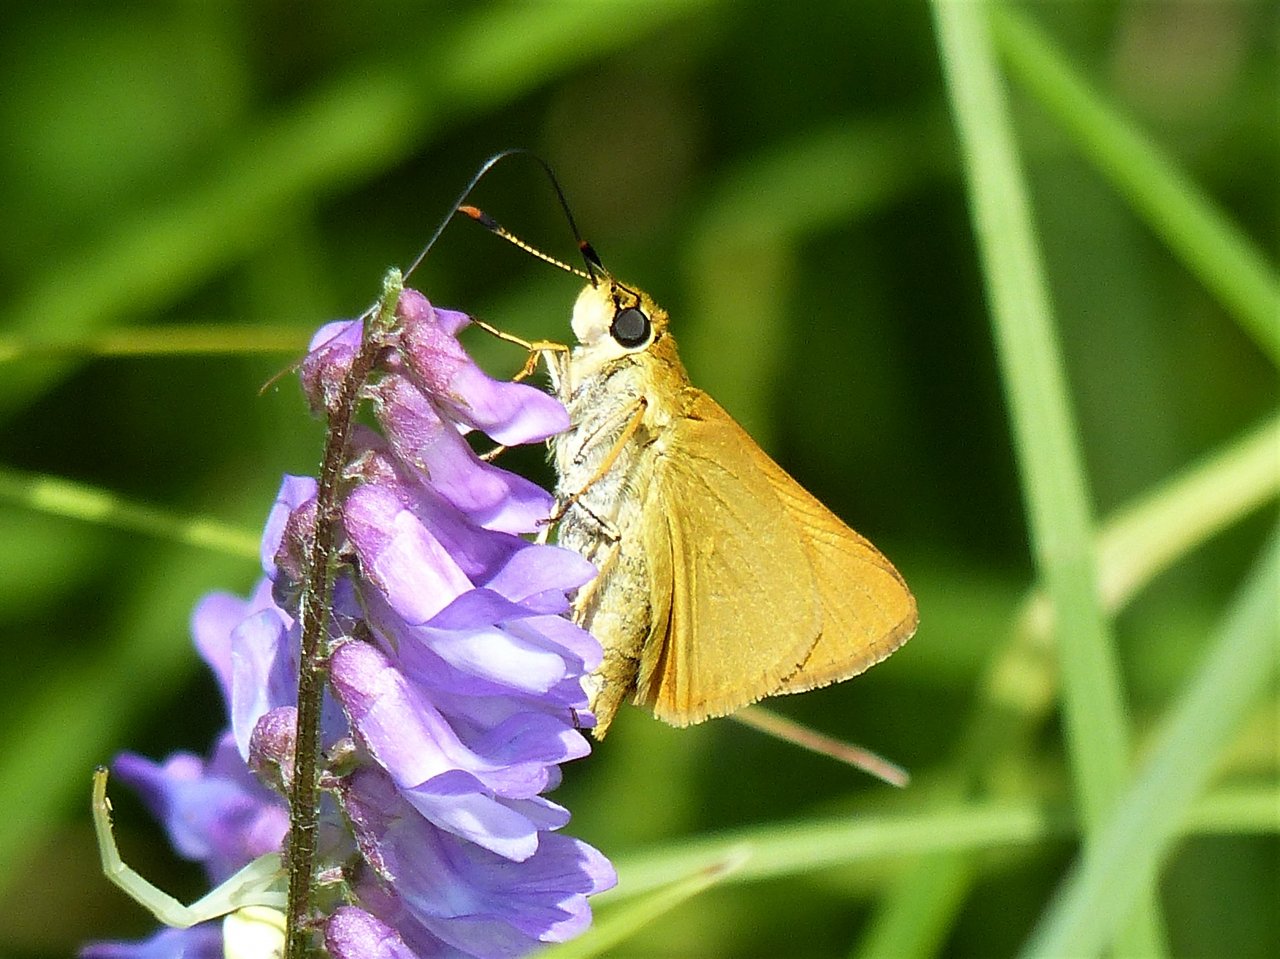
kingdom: Animalia
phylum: Arthropoda
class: Insecta
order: Lepidoptera
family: Hesperiidae
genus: Atrytone
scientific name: Atrytone delaware
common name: Delaware Skipper
